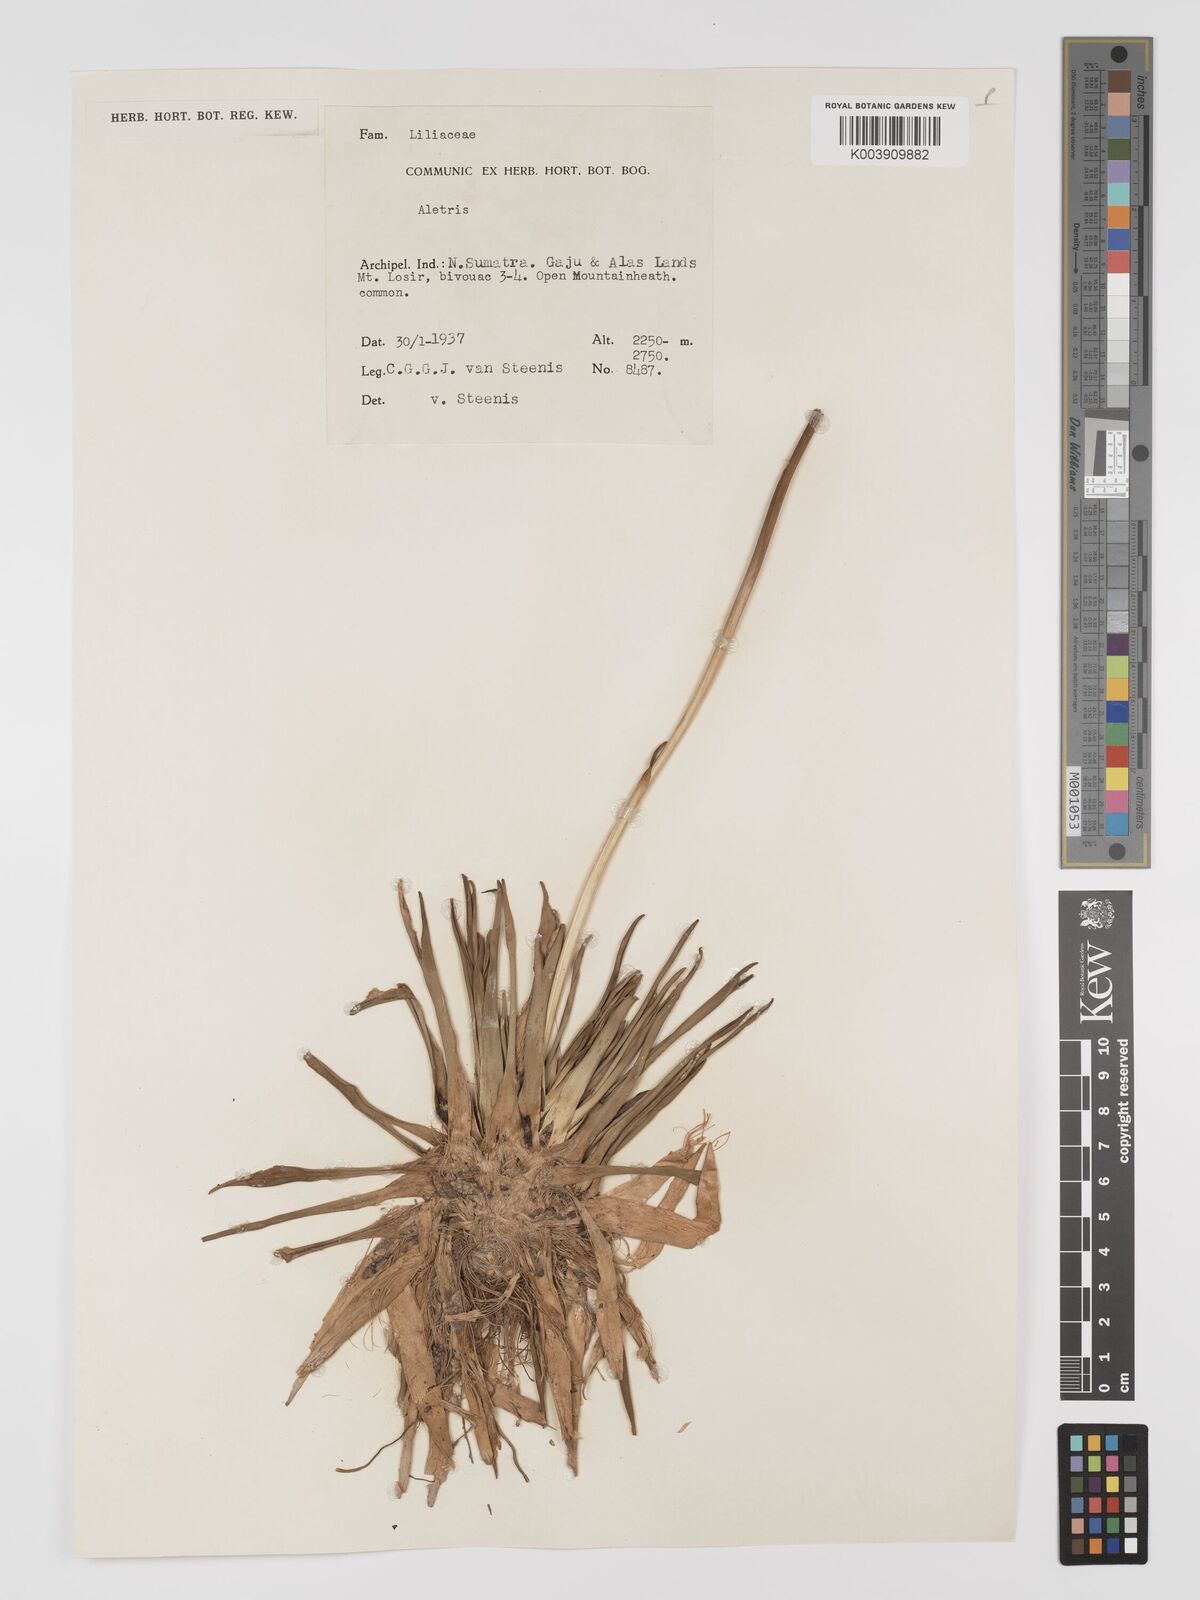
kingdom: Plantae
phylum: Tracheophyta
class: Liliopsida
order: Dioscoreales
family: Nartheciaceae
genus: Aletris
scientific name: Aletris
